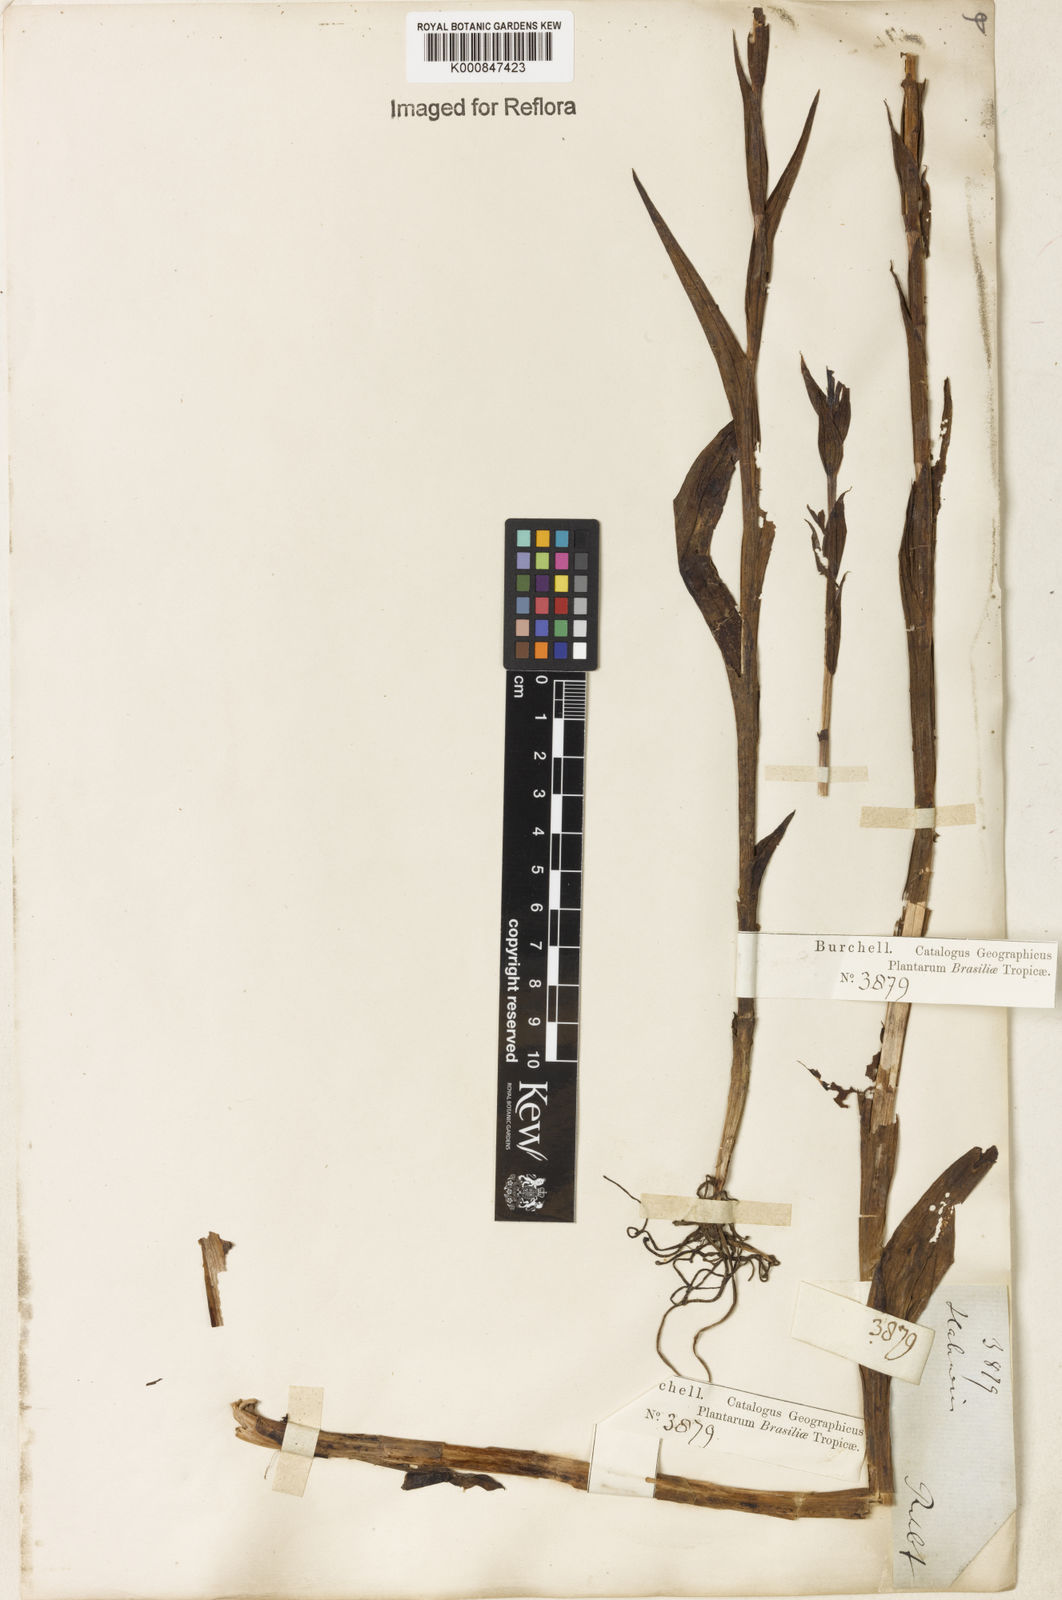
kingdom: Plantae
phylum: Tracheophyta
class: Liliopsida
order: Asparagales
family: Orchidaceae
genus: Habenaria
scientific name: Habenaria leptoceras
